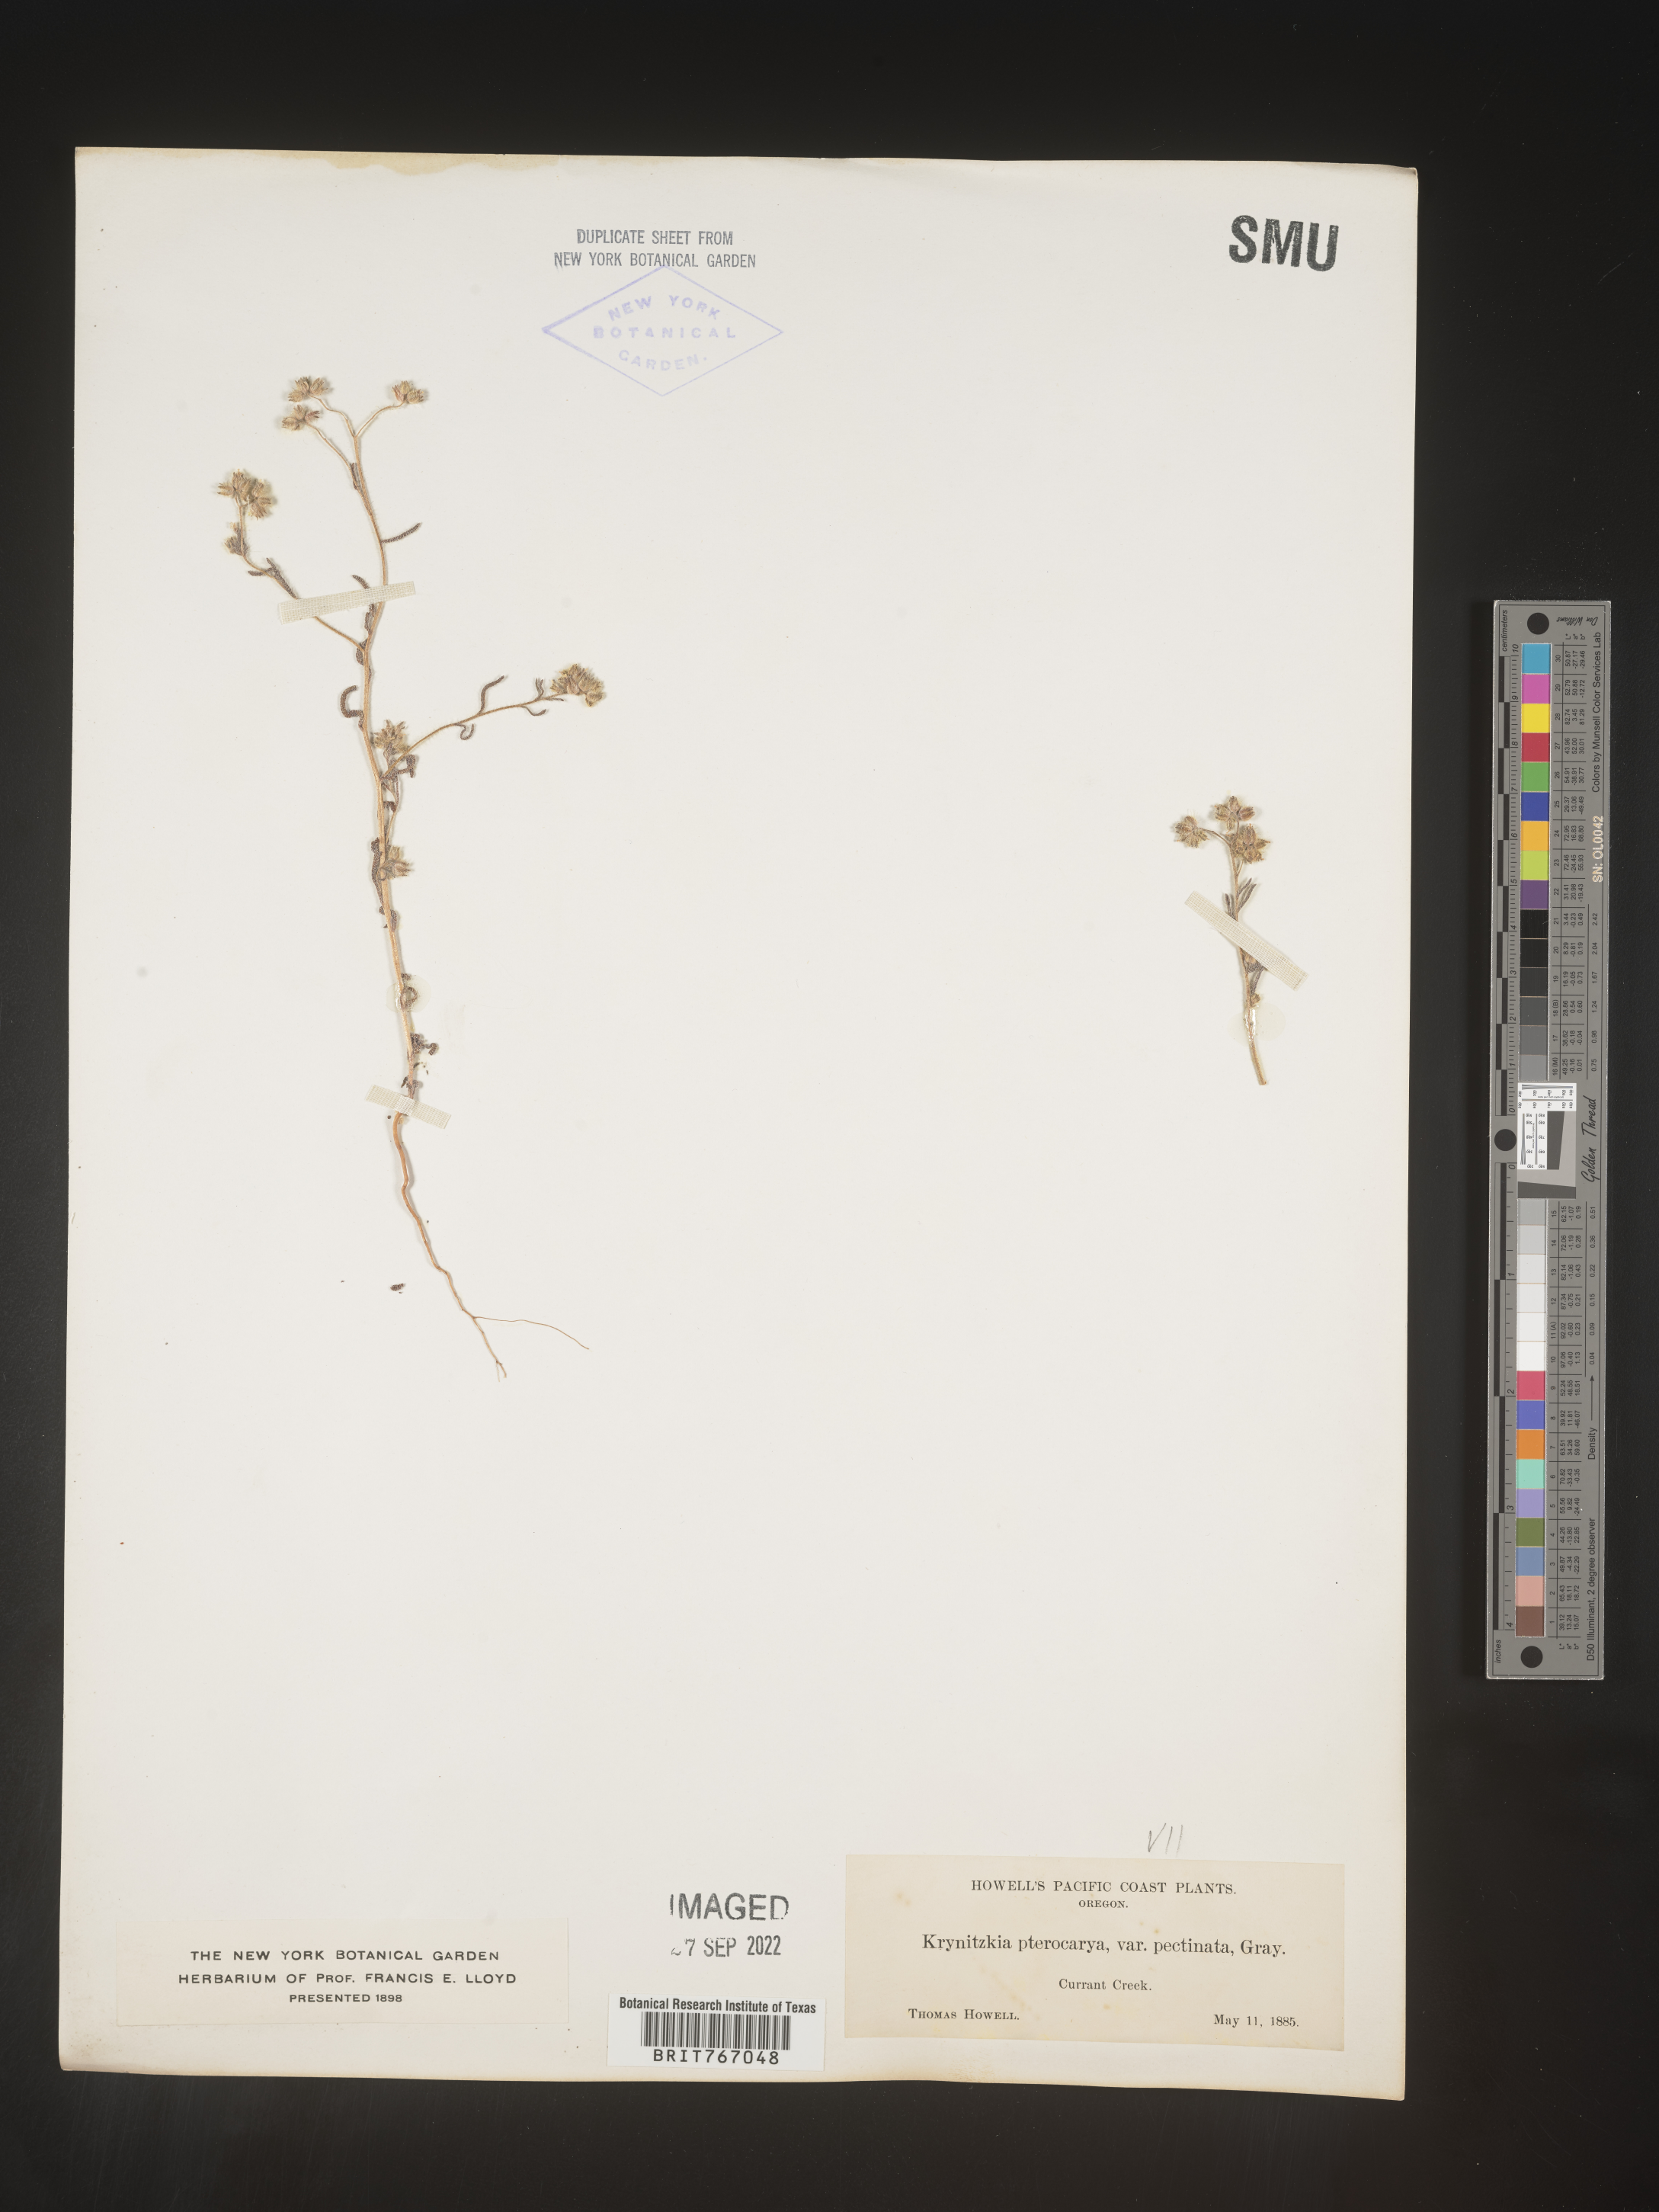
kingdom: Plantae
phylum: Tracheophyta
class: Magnoliopsida
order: Boraginales
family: Boraginaceae
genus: Cryptantha
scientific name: Cryptantha pterocarya
